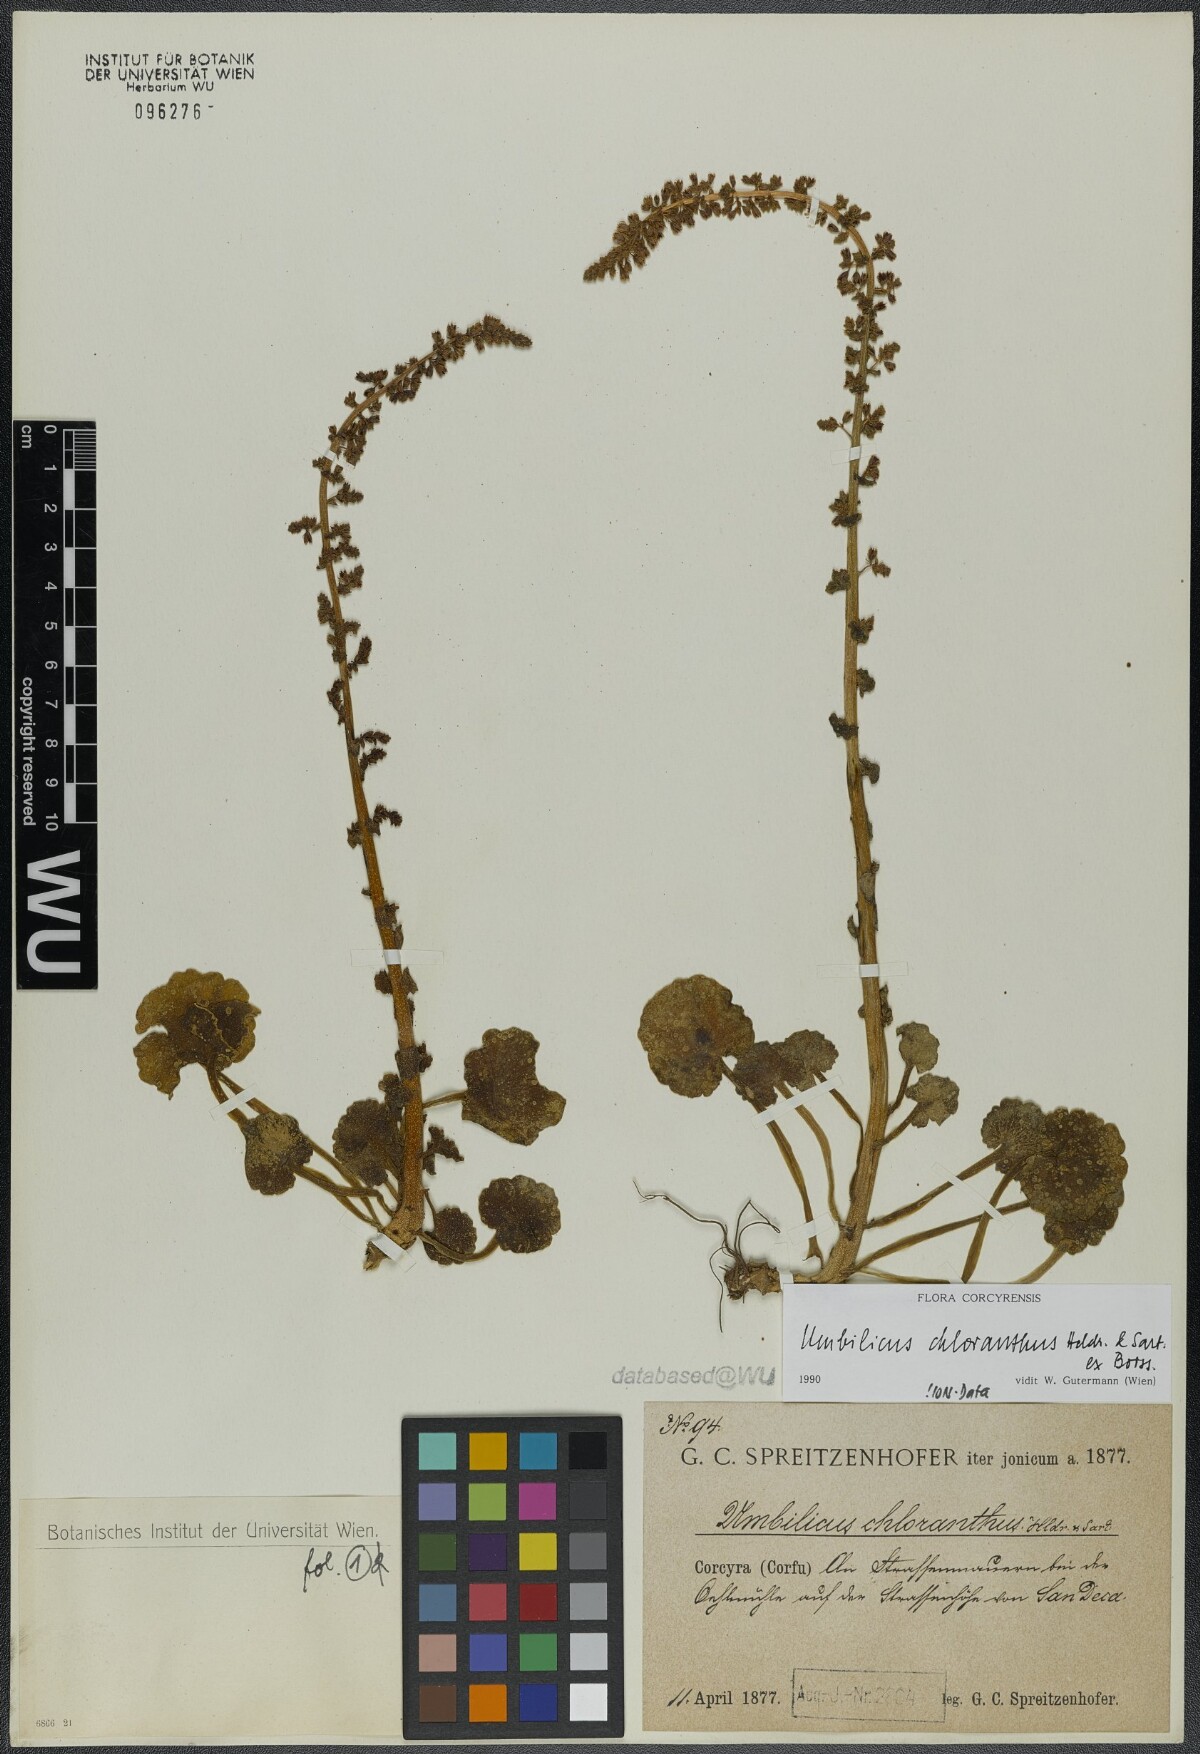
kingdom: Plantae
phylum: Tracheophyta
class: Magnoliopsida
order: Saxifragales
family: Crassulaceae
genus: Umbilicus
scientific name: Umbilicus chloranthus
